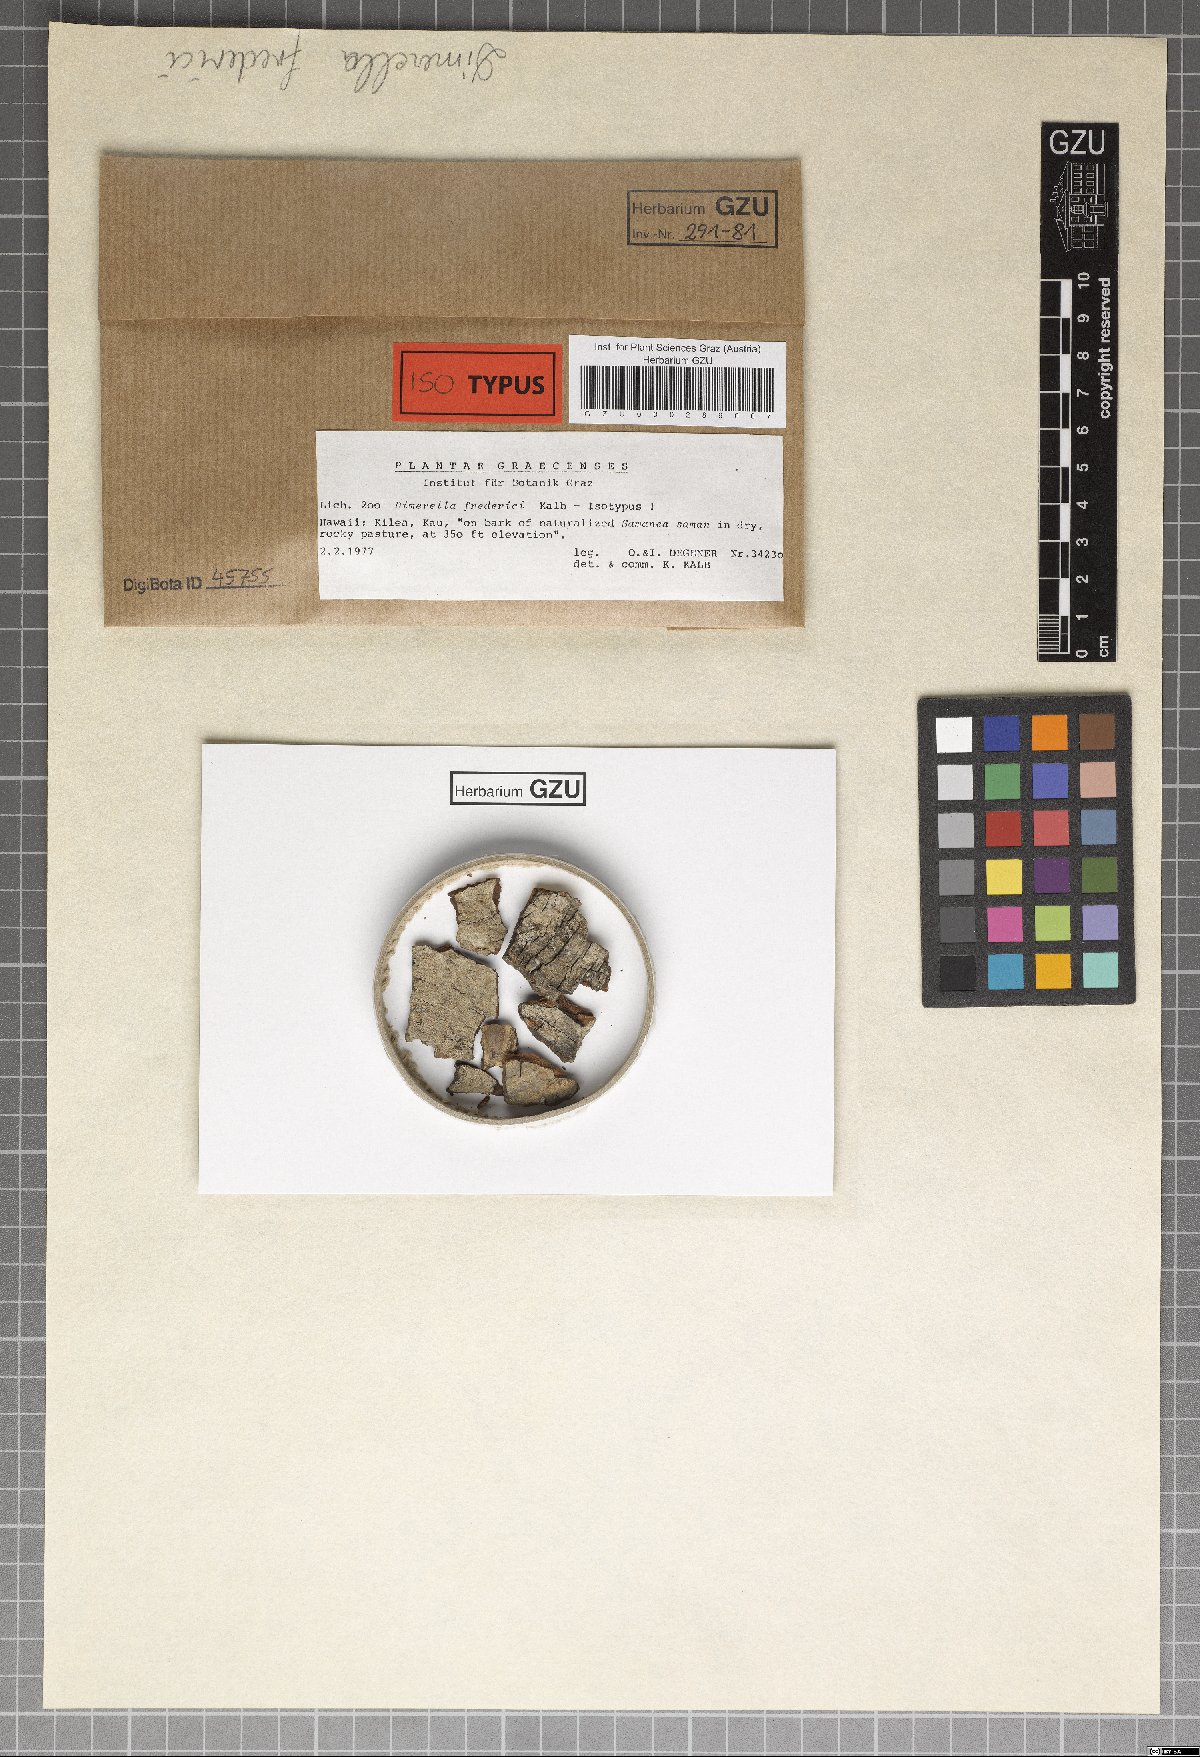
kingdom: Fungi
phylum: Ascomycota
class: Lecanoromycetes
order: Gyalectales
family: Gyalectaceae
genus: Dimerella
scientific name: Dimerella fredrici
